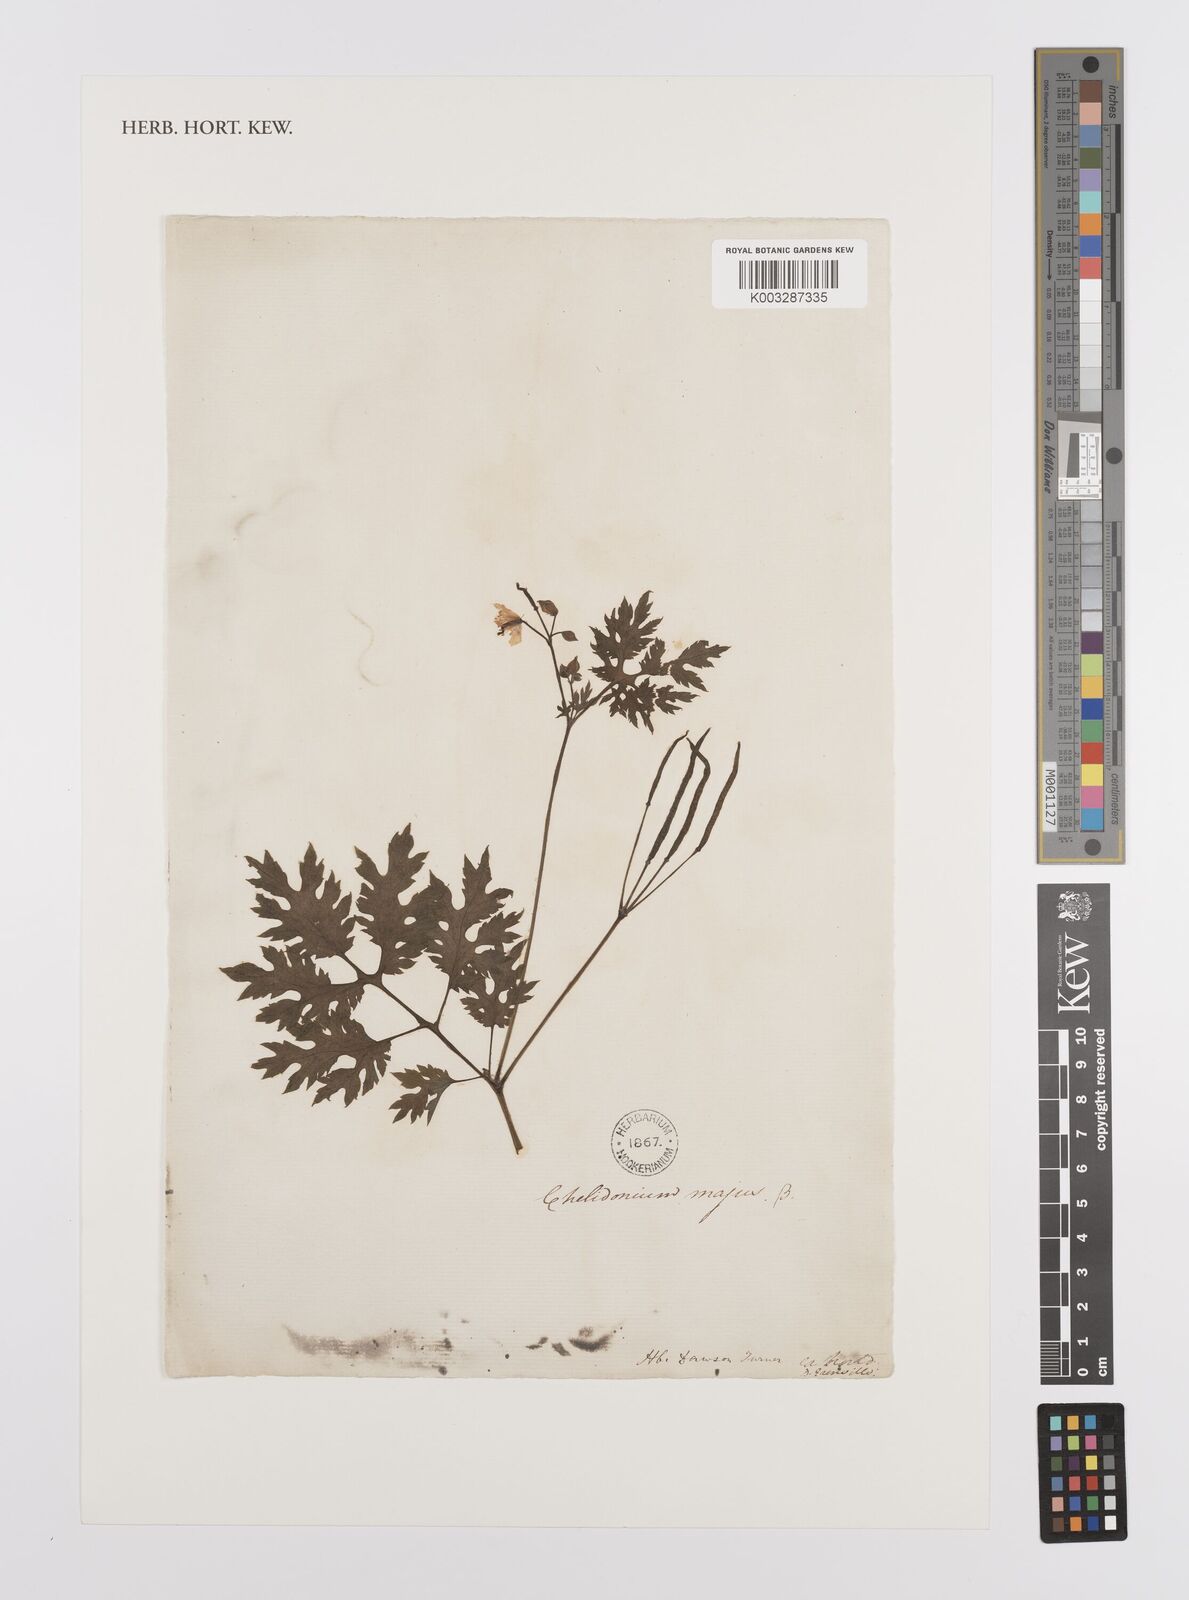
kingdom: Plantae
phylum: Tracheophyta
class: Magnoliopsida
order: Ranunculales
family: Papaveraceae
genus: Chelidonium
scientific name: Chelidonium majus
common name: Greater celandine
